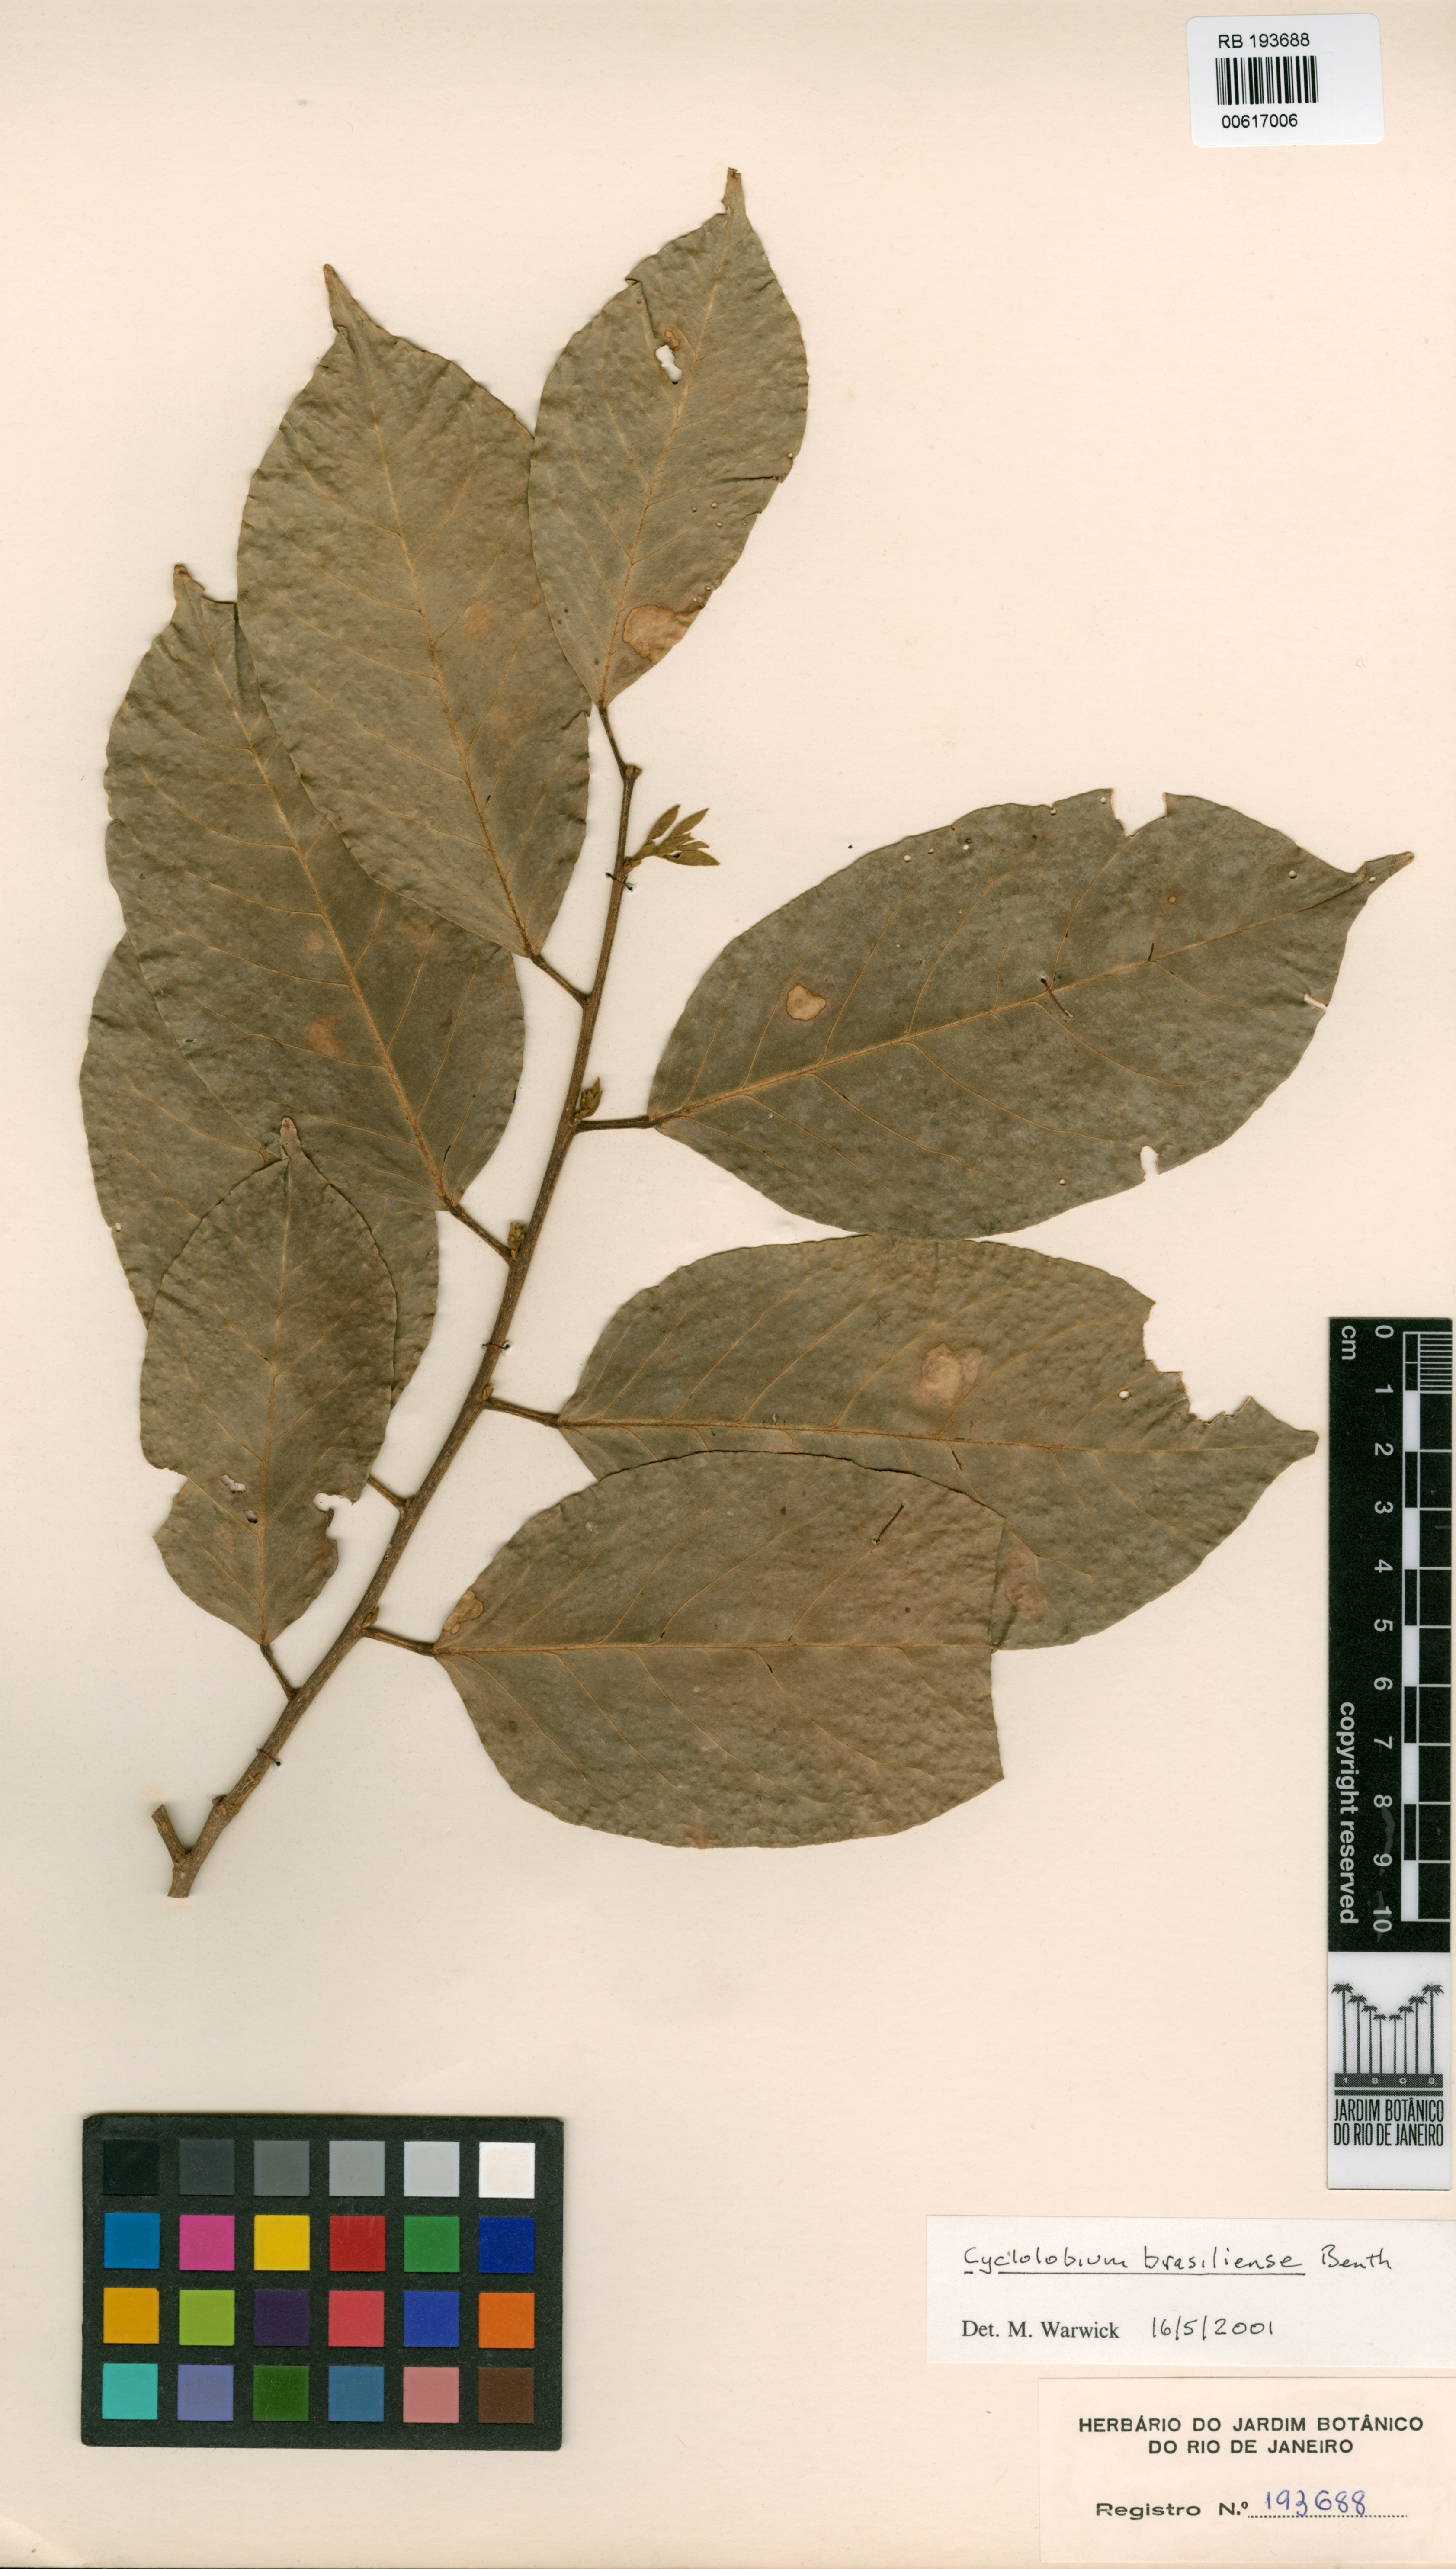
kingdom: Plantae
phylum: Tracheophyta
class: Magnoliopsida
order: Fabales
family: Fabaceae
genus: Cyclolobium
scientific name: Cyclolobium brasiliense
